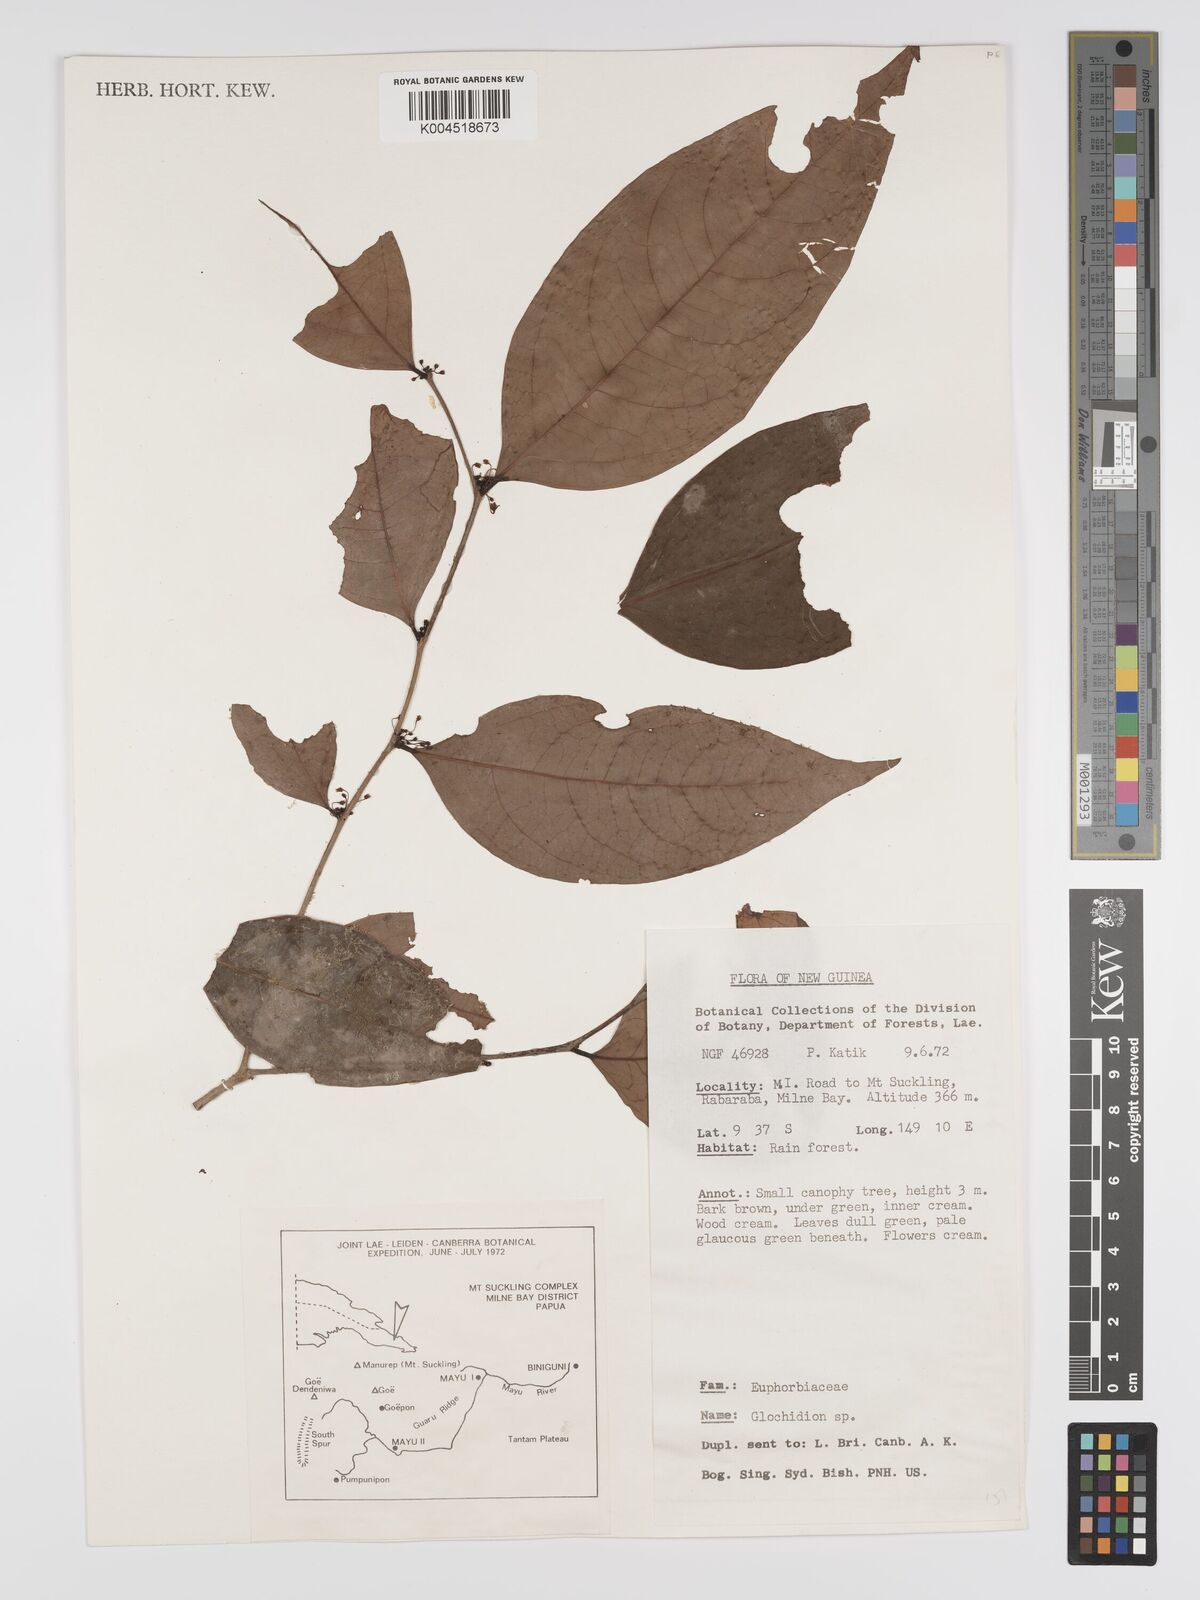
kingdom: Plantae
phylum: Tracheophyta
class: Magnoliopsida
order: Malpighiales
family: Phyllanthaceae
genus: Phyllanthus
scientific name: Phyllanthus aphanostylus
